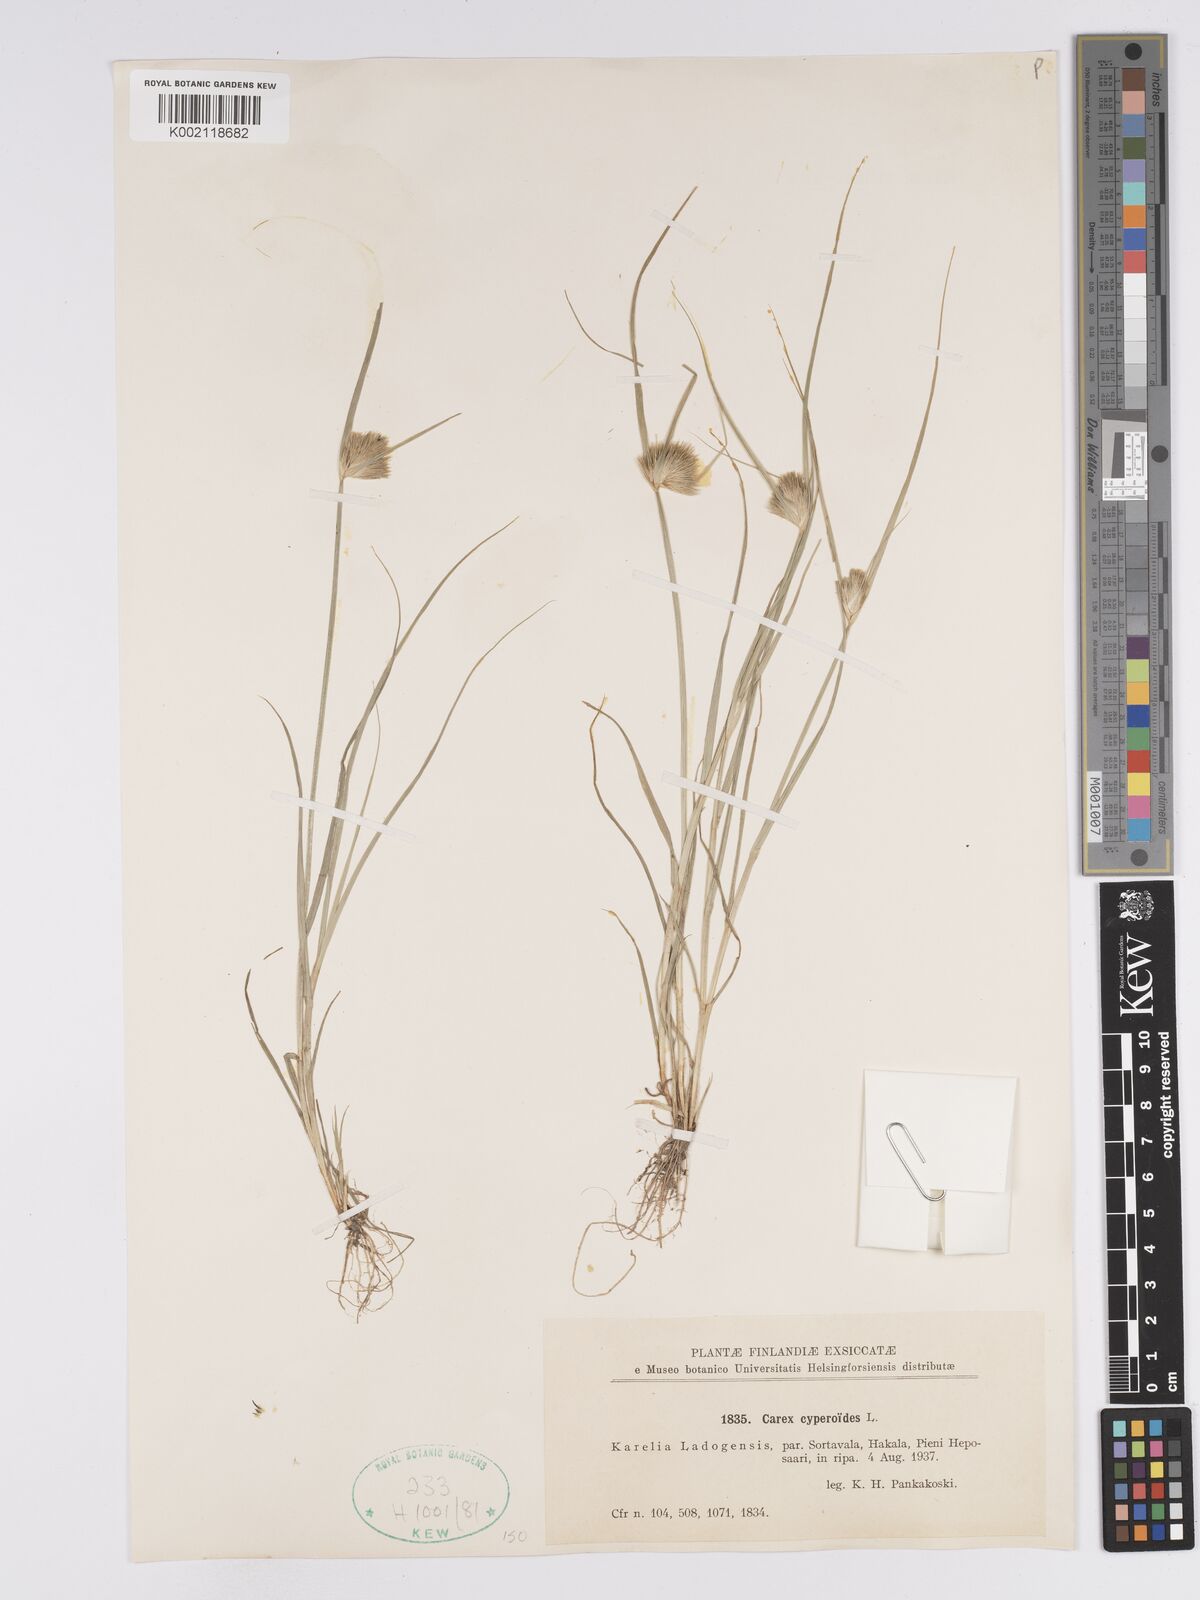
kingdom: Plantae
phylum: Tracheophyta
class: Liliopsida
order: Poales
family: Cyperaceae
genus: Carex
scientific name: Carex bohemica
